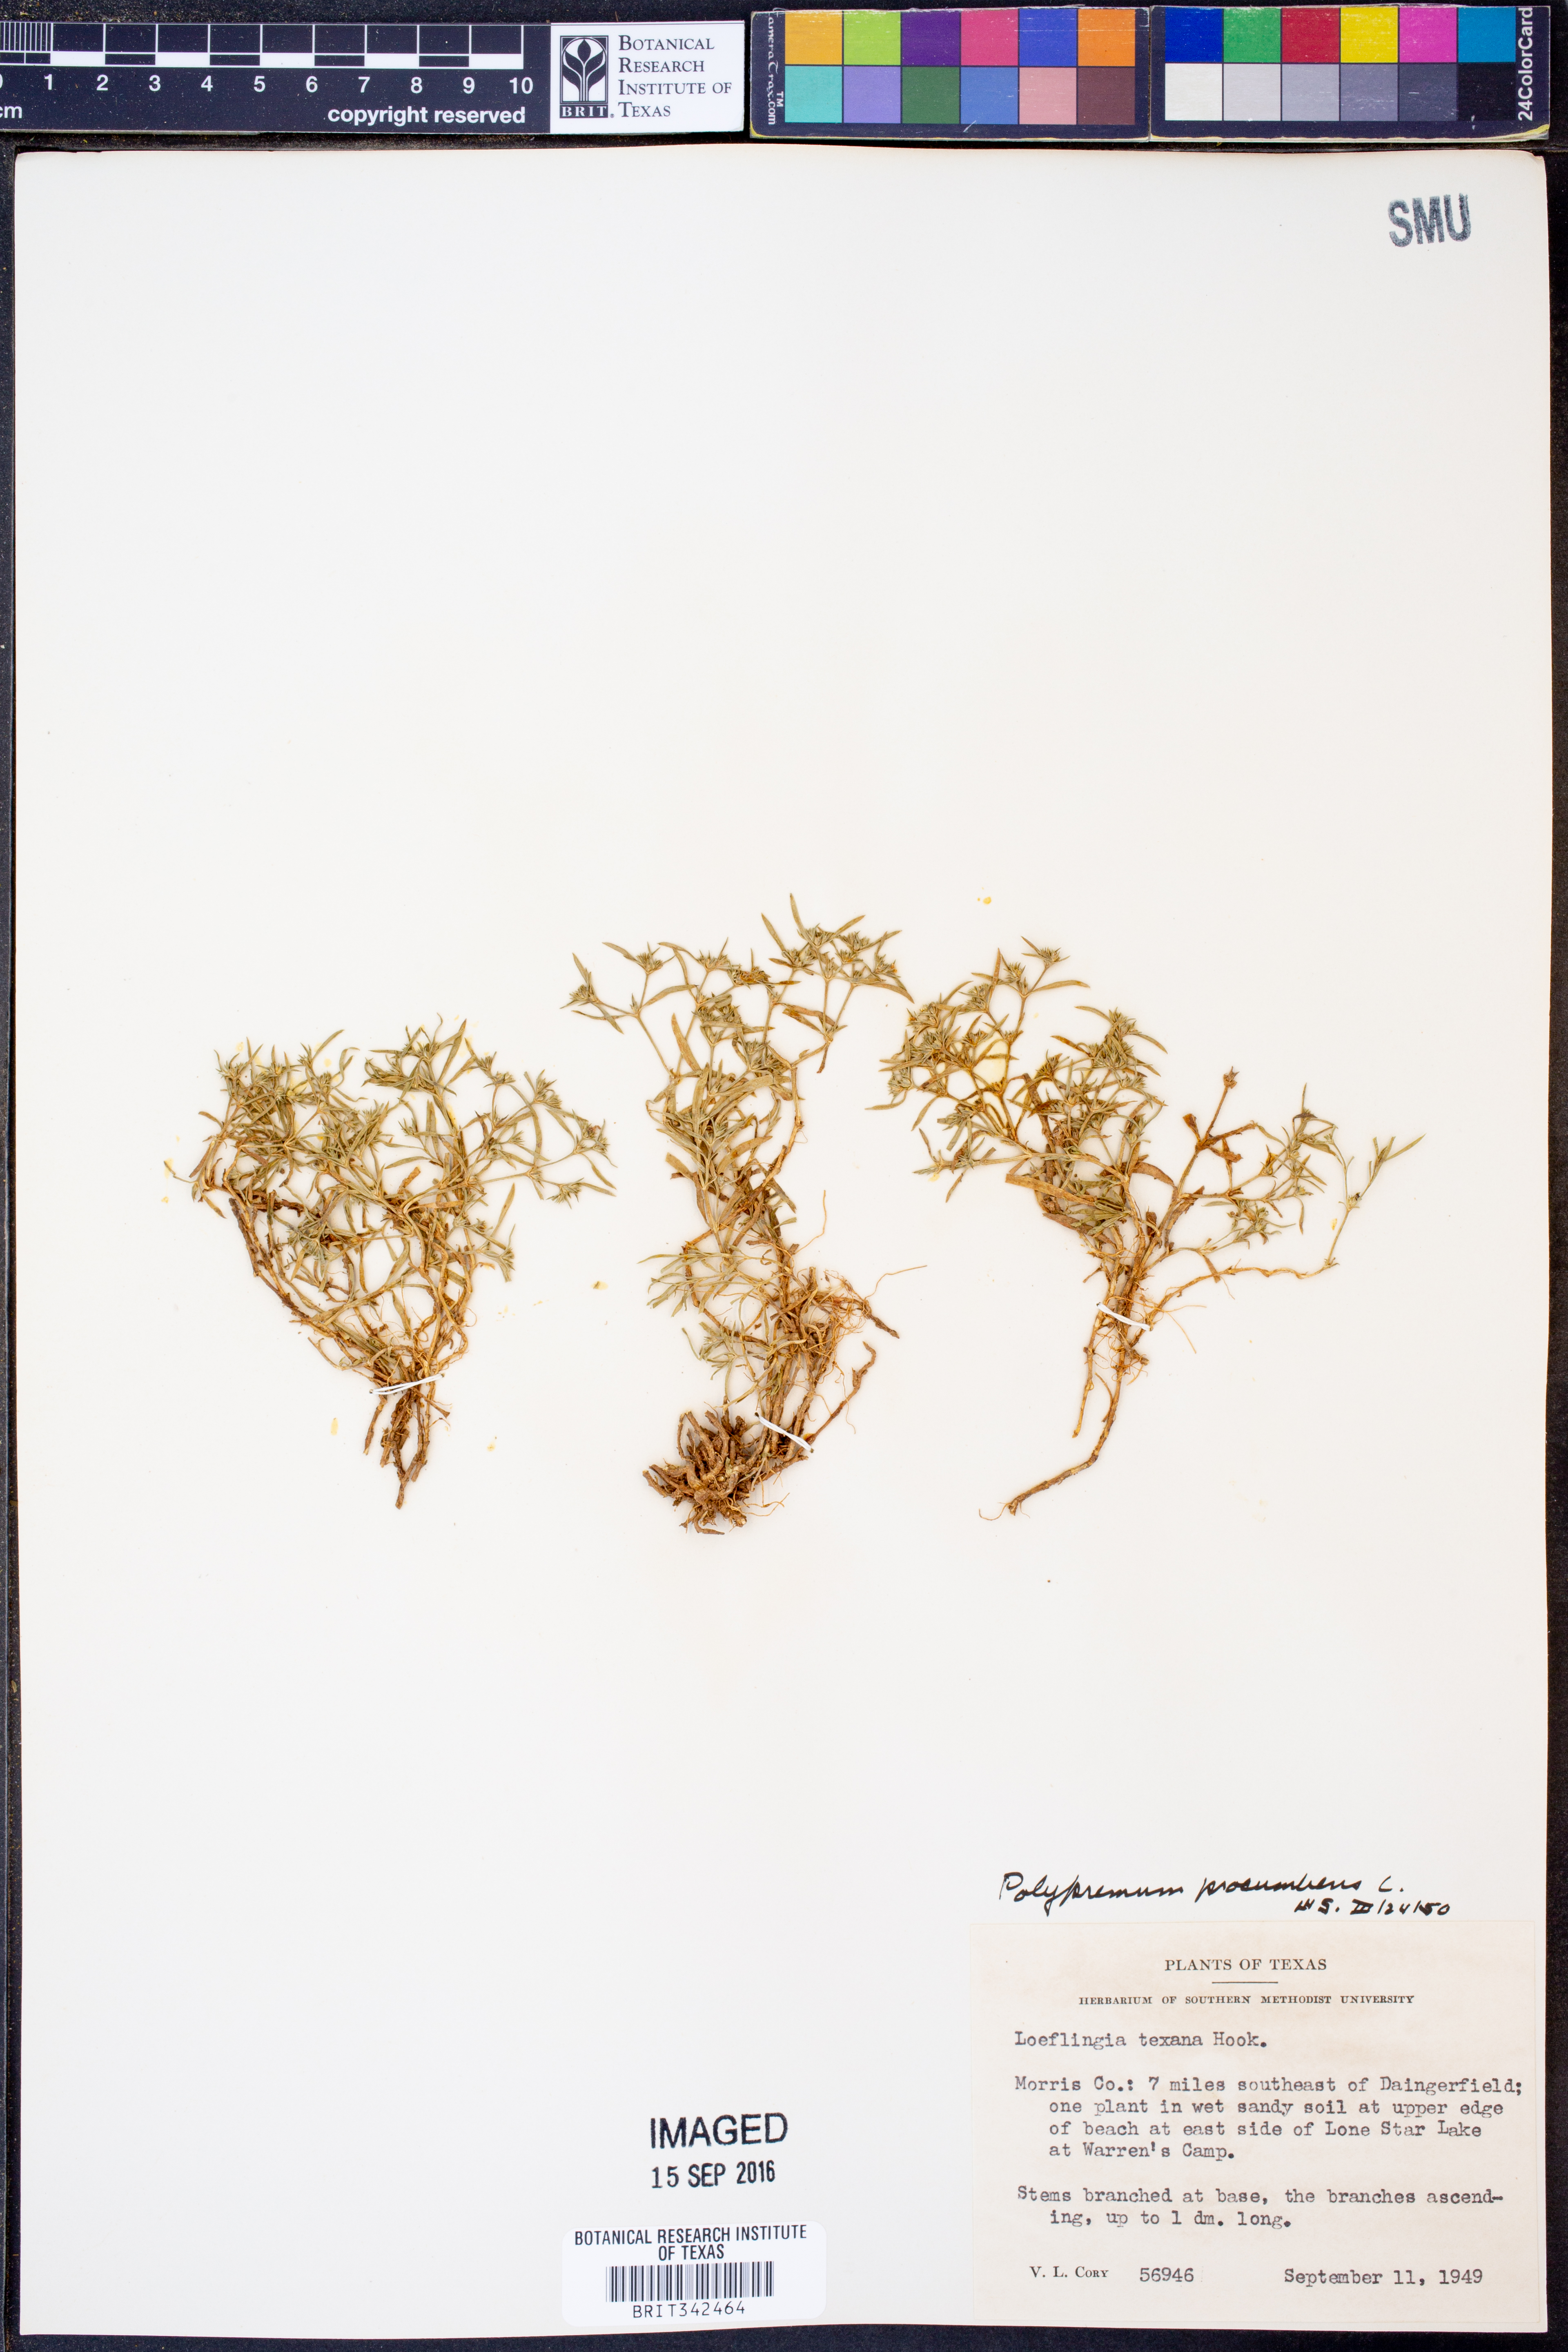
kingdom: Plantae
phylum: Tracheophyta
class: Magnoliopsida
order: Lamiales
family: Tetrachondraceae
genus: Polypremum
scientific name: Polypremum procumbens
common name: Juniper-leaf
